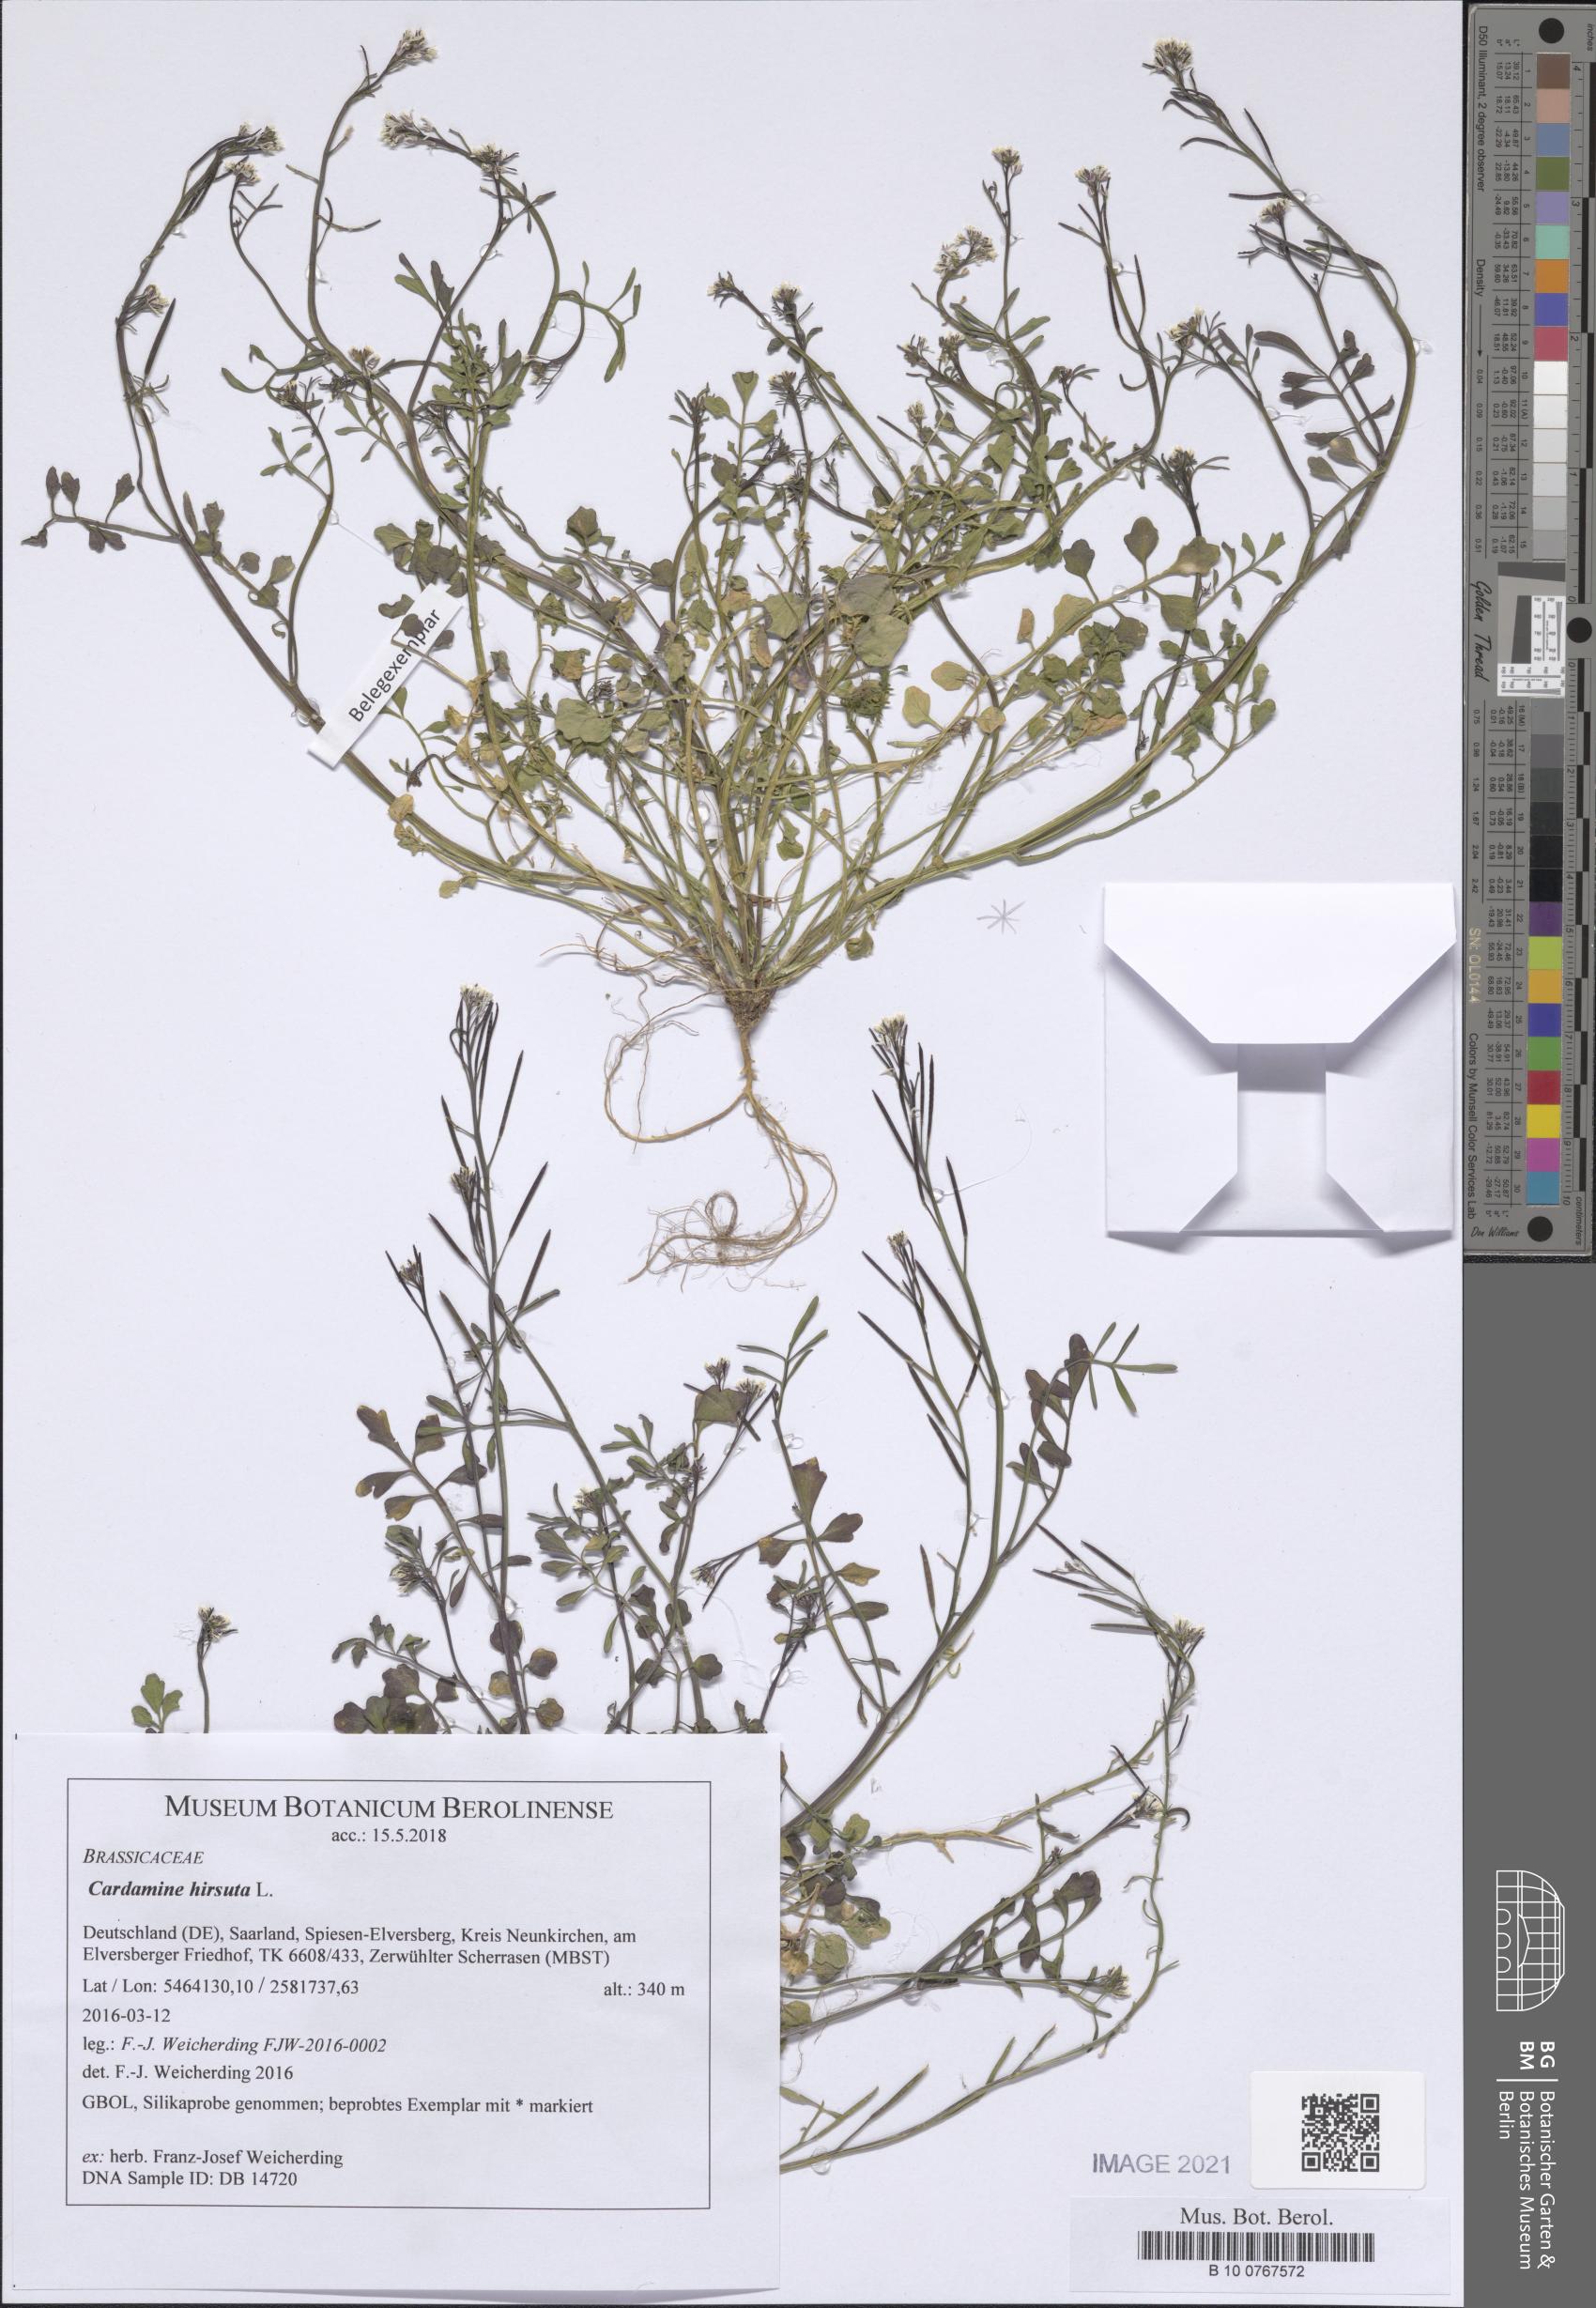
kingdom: Plantae
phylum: Tracheophyta
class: Magnoliopsida
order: Brassicales
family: Brassicaceae
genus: Cardamine
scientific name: Cardamine hirsuta
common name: Hairy bittercress
